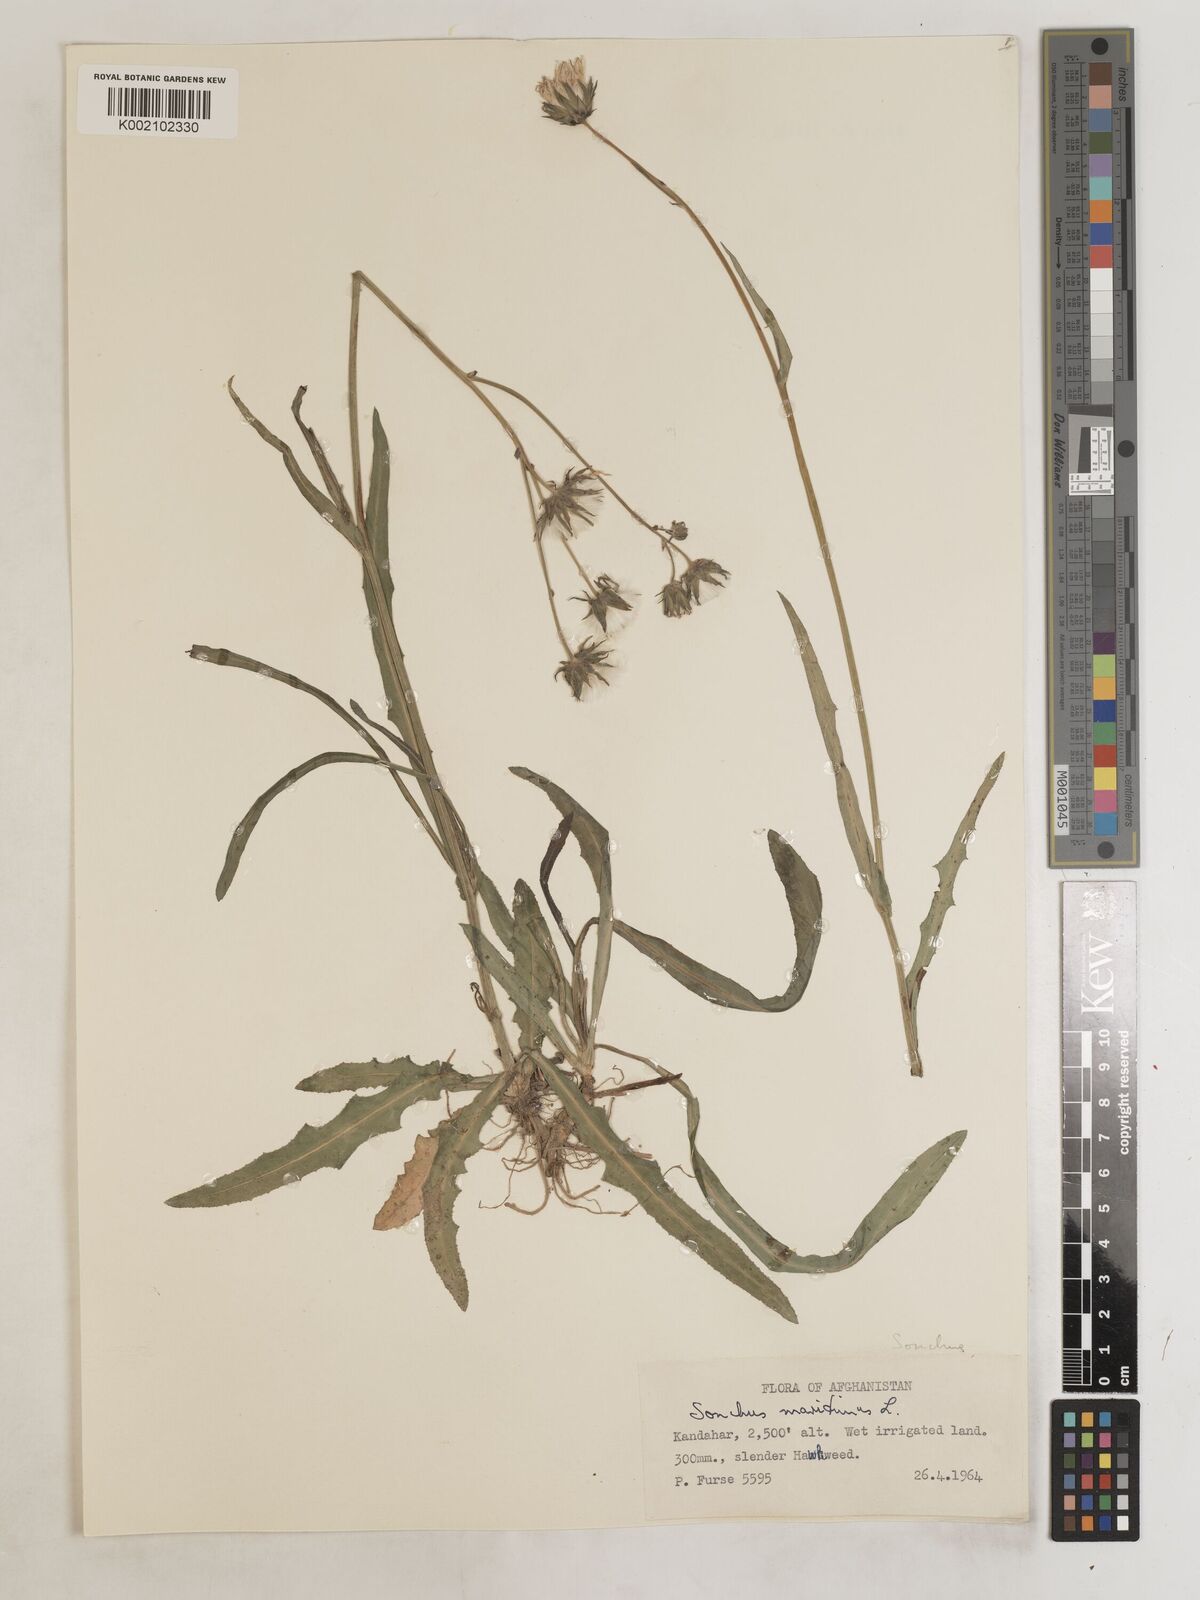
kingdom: Plantae
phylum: Tracheophyta
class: Magnoliopsida
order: Asterales
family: Asteraceae
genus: Sonchus
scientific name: Sonchus maritimus
